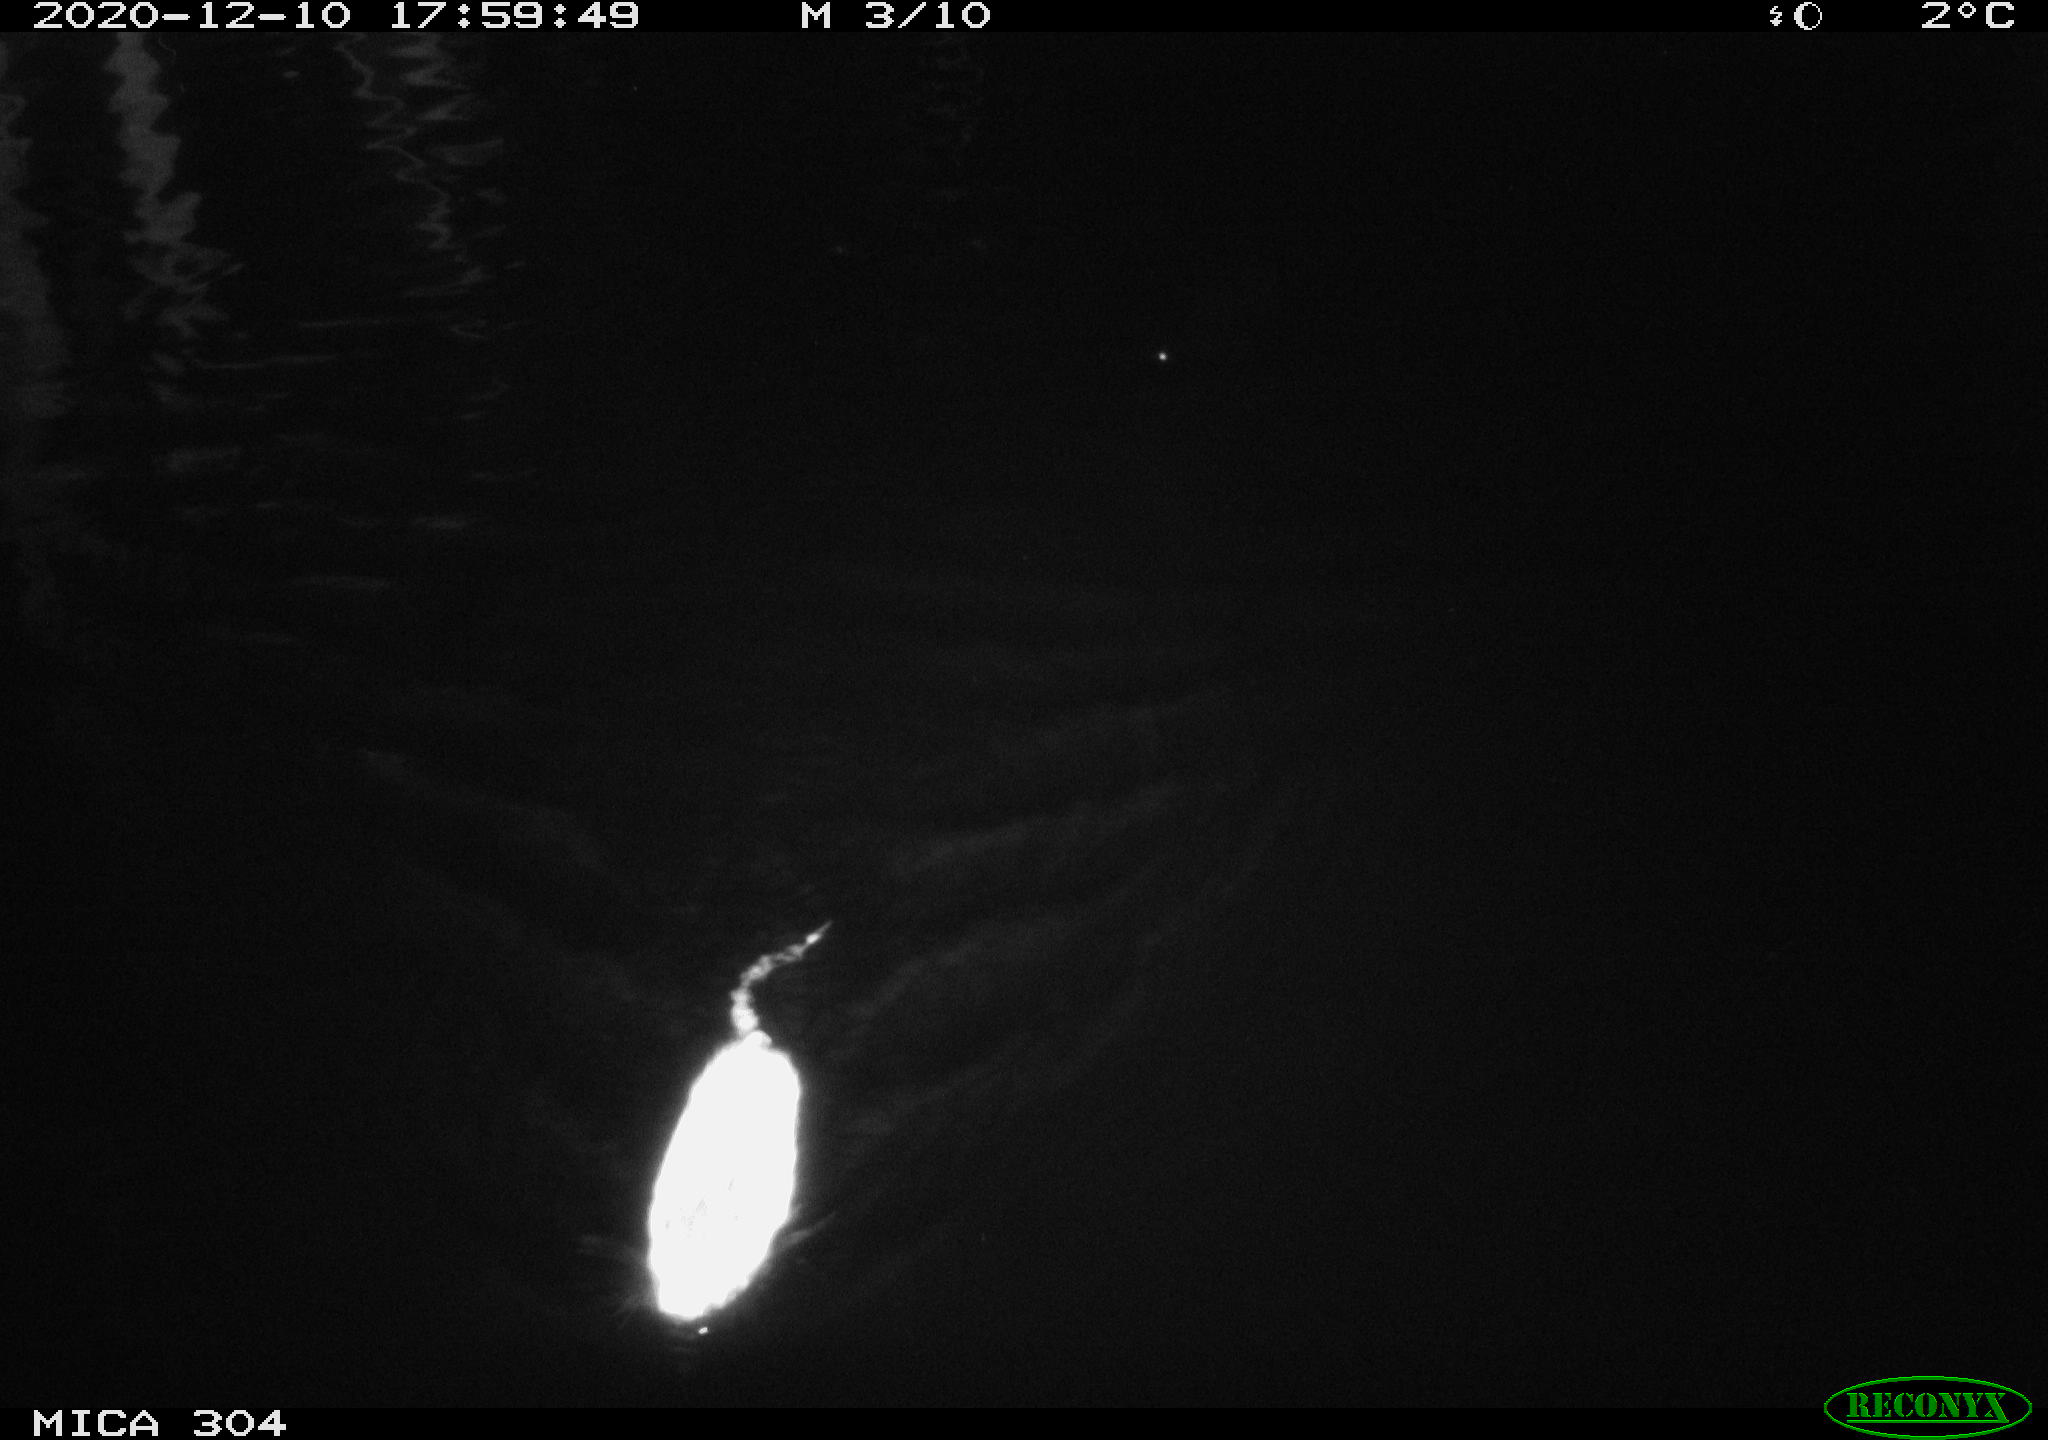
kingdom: Animalia
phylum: Chordata
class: Mammalia
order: Rodentia
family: Muridae
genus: Rattus
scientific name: Rattus norvegicus
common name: Brown rat
